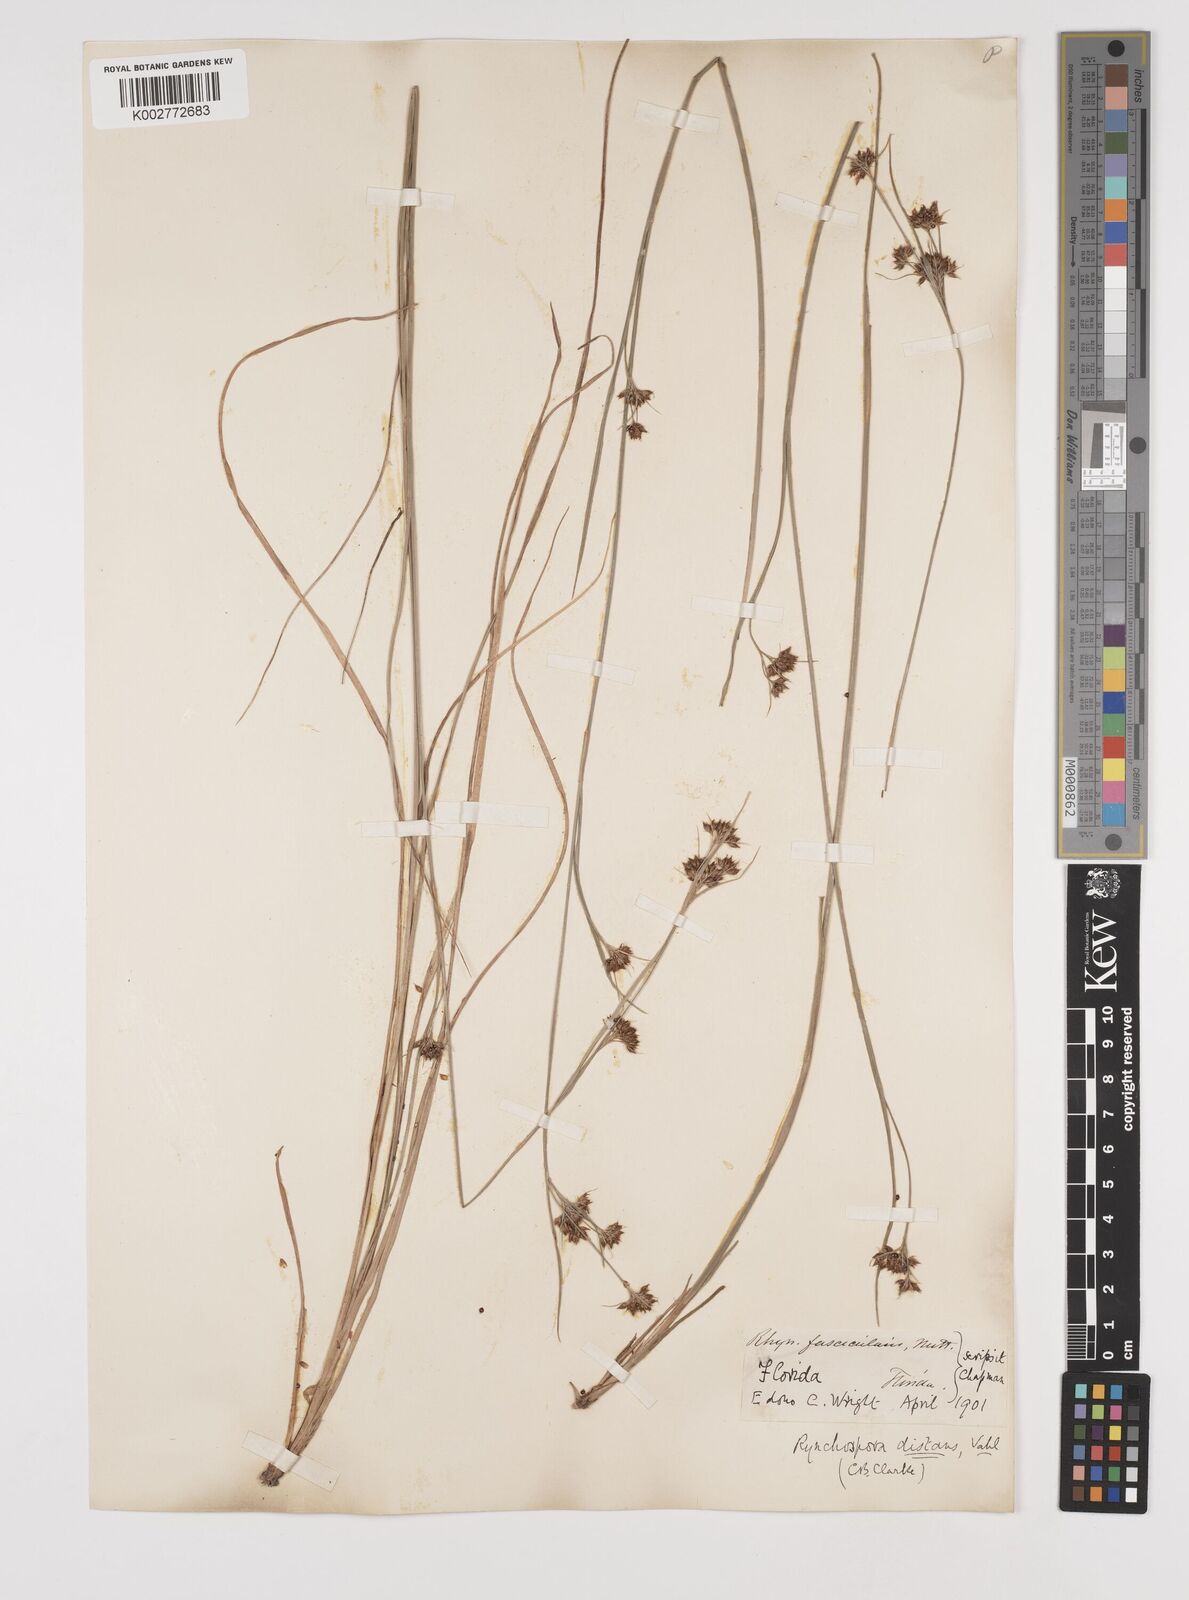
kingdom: Plantae
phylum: Tracheophyta
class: Liliopsida
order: Poales
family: Cyperaceae
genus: Rhynchospora
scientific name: Rhynchospora fascicularis
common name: Fascicled beak sedge
